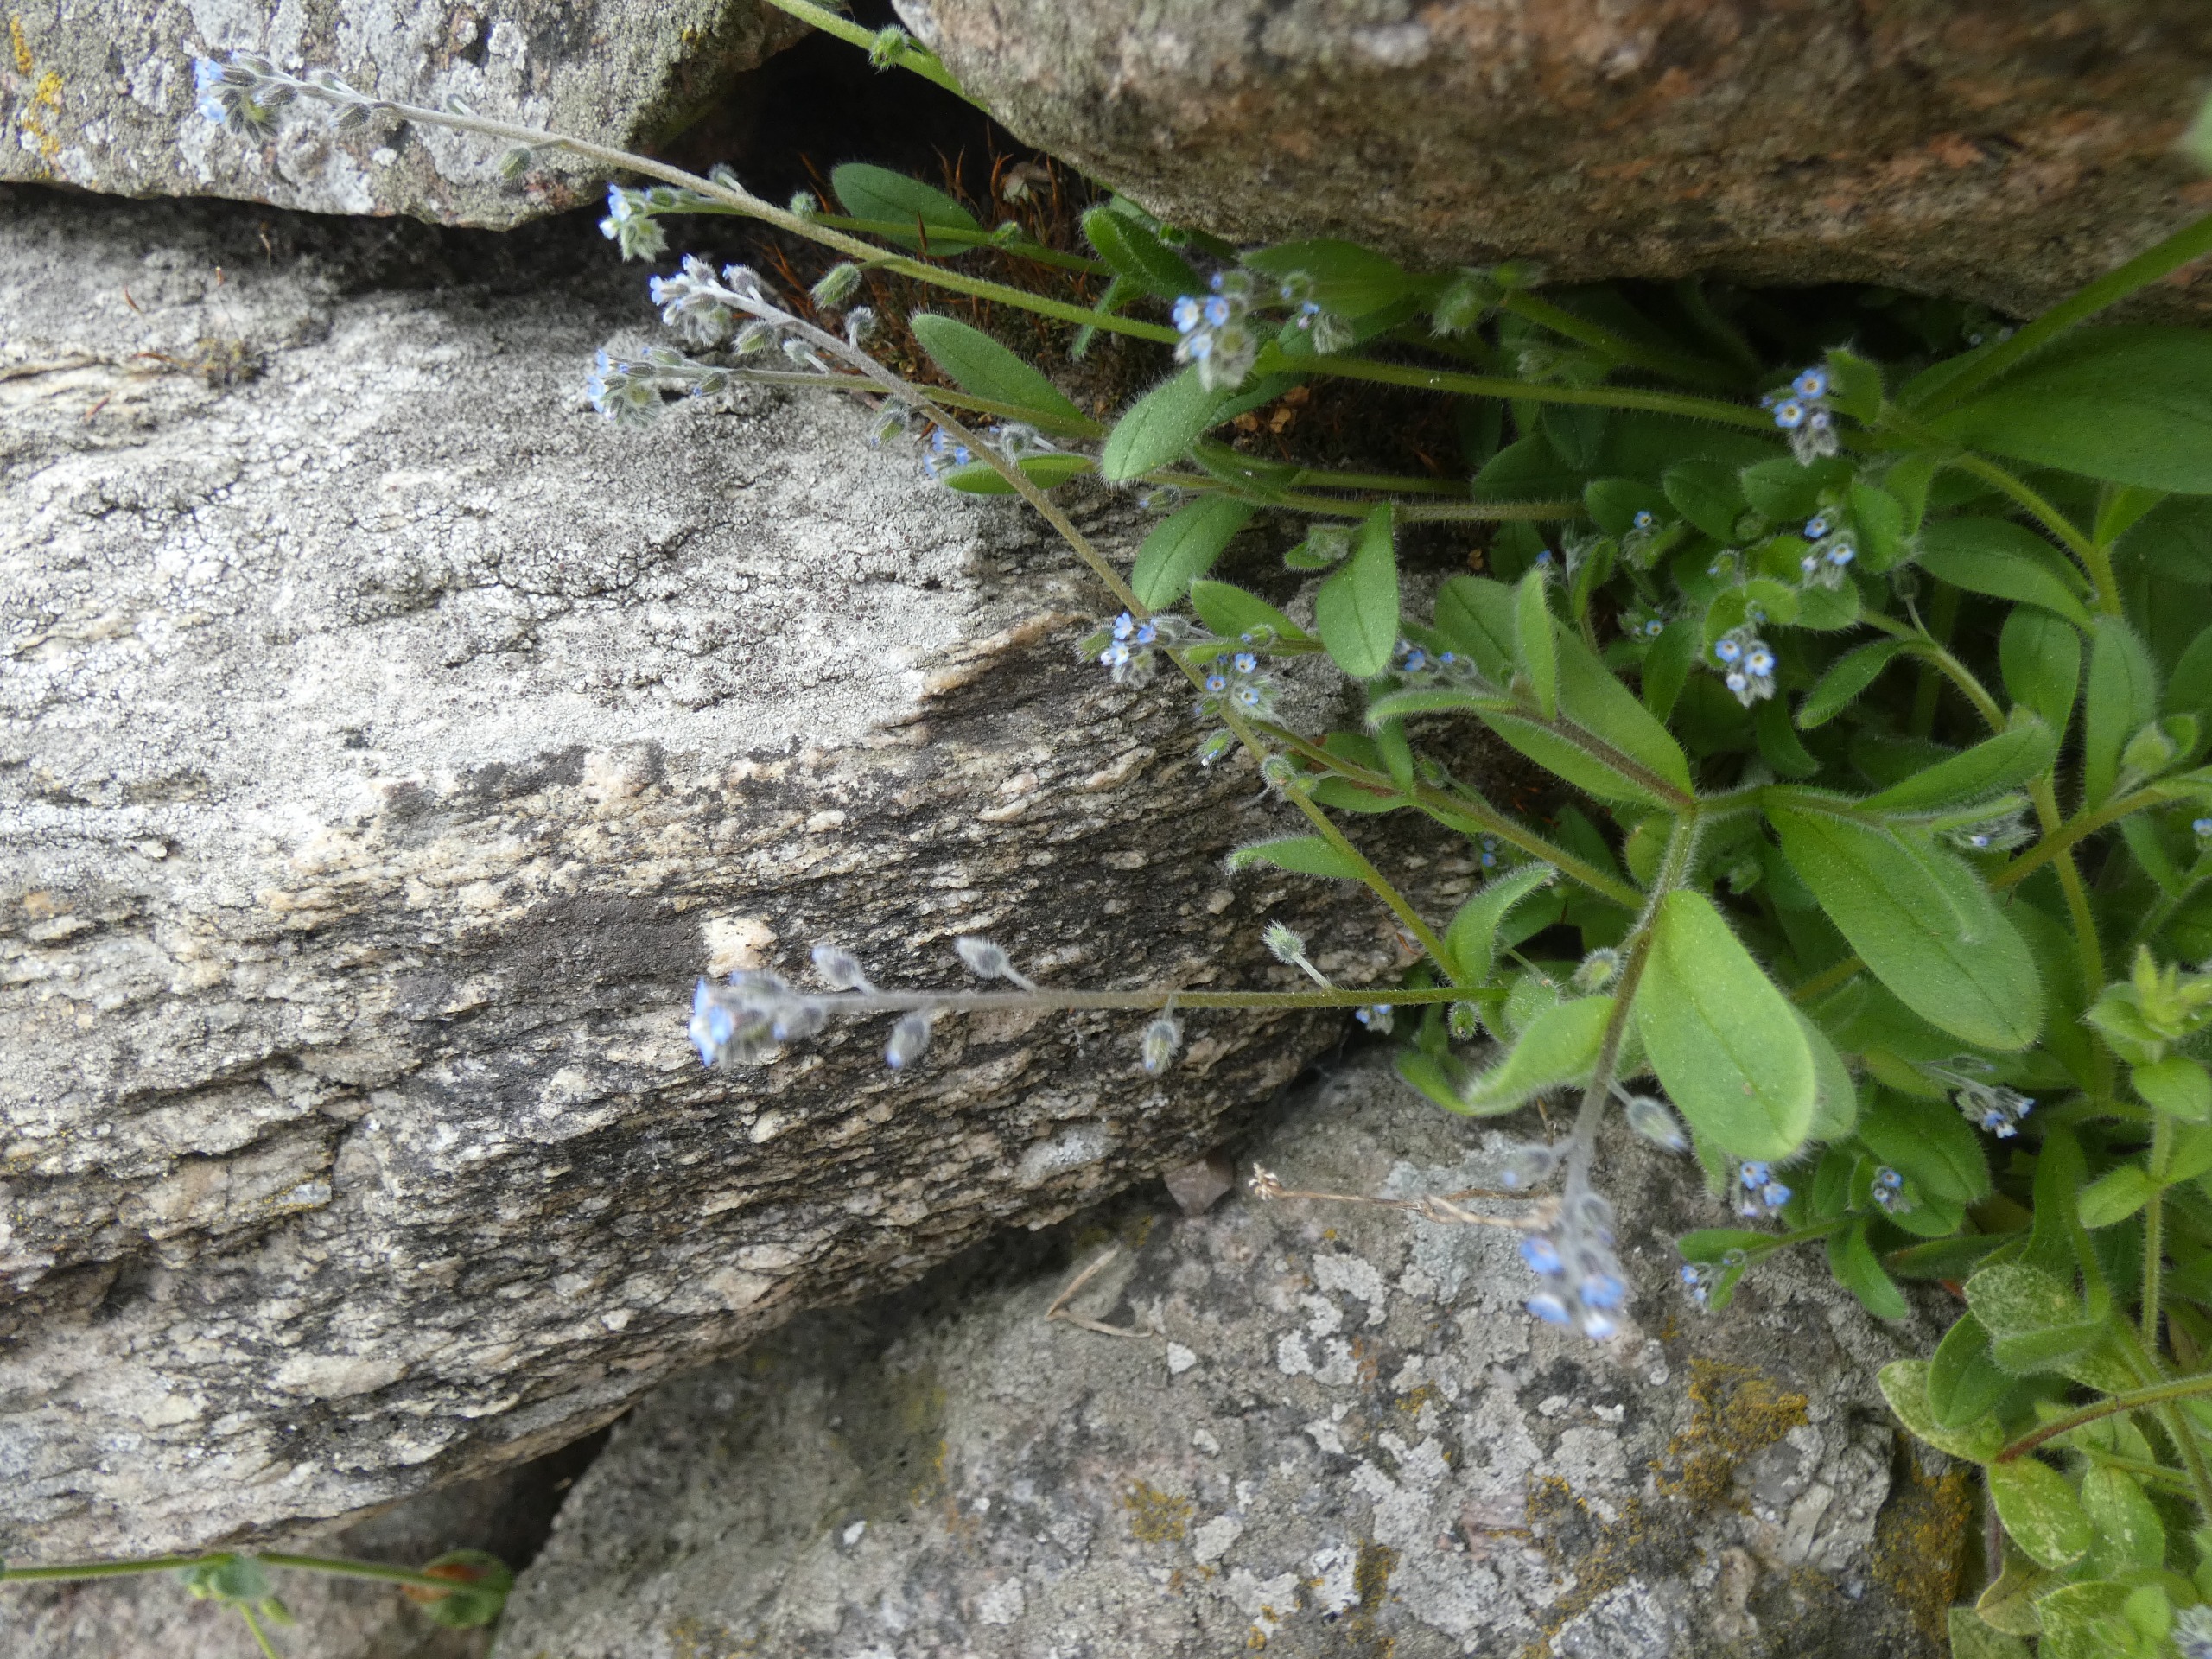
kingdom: Plantae
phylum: Tracheophyta
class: Magnoliopsida
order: Boraginales
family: Boraginaceae
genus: Myosotis
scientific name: Myosotis ramosissima
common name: Bakke-forglemmigej
